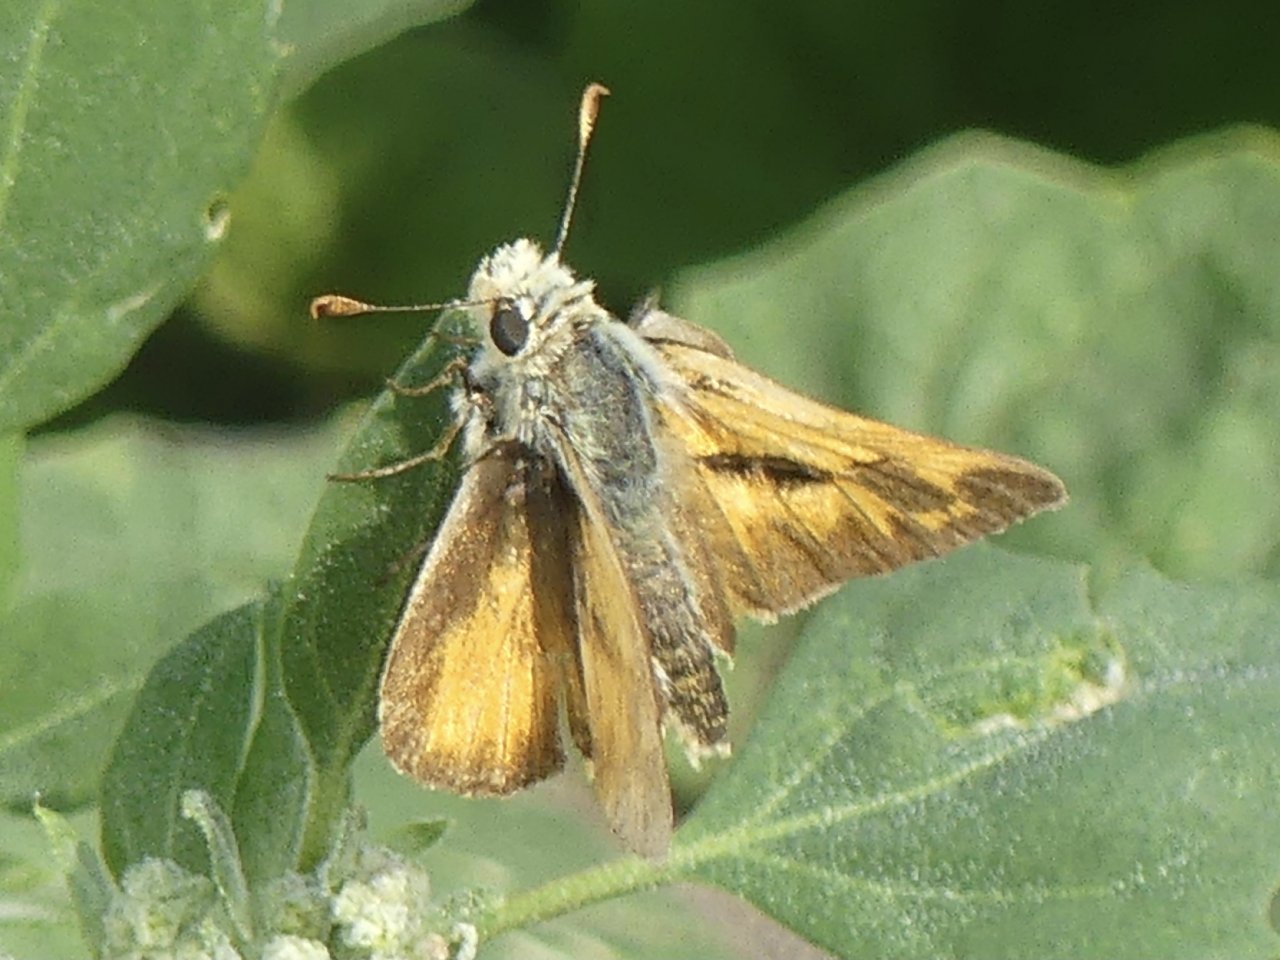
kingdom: Animalia
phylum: Arthropoda
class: Insecta
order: Lepidoptera
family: Hesperiidae
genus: Ochlodes
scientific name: Ochlodes sylvanoides
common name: Woodland Skipper
